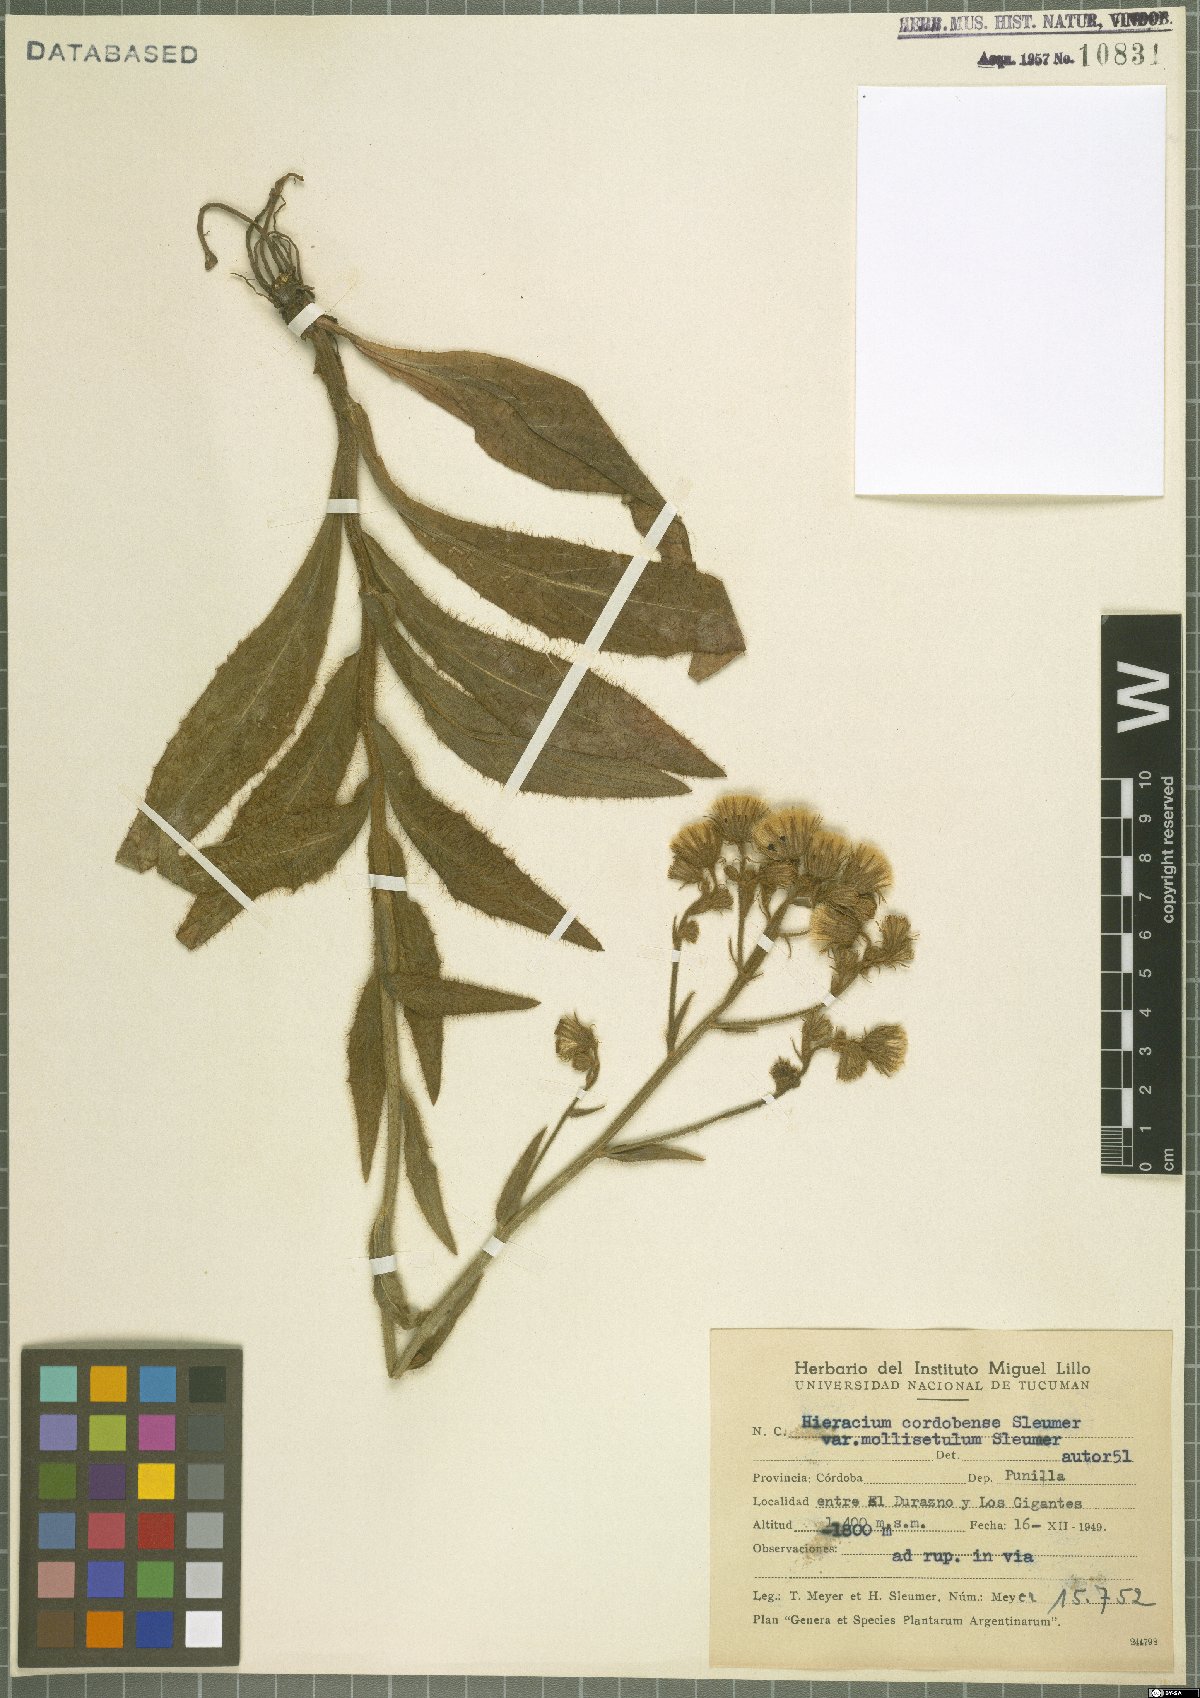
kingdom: Plantae
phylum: Tracheophyta
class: Magnoliopsida
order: Asterales
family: Asteraceae
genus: Hieracium
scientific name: Hieracium cordobense
